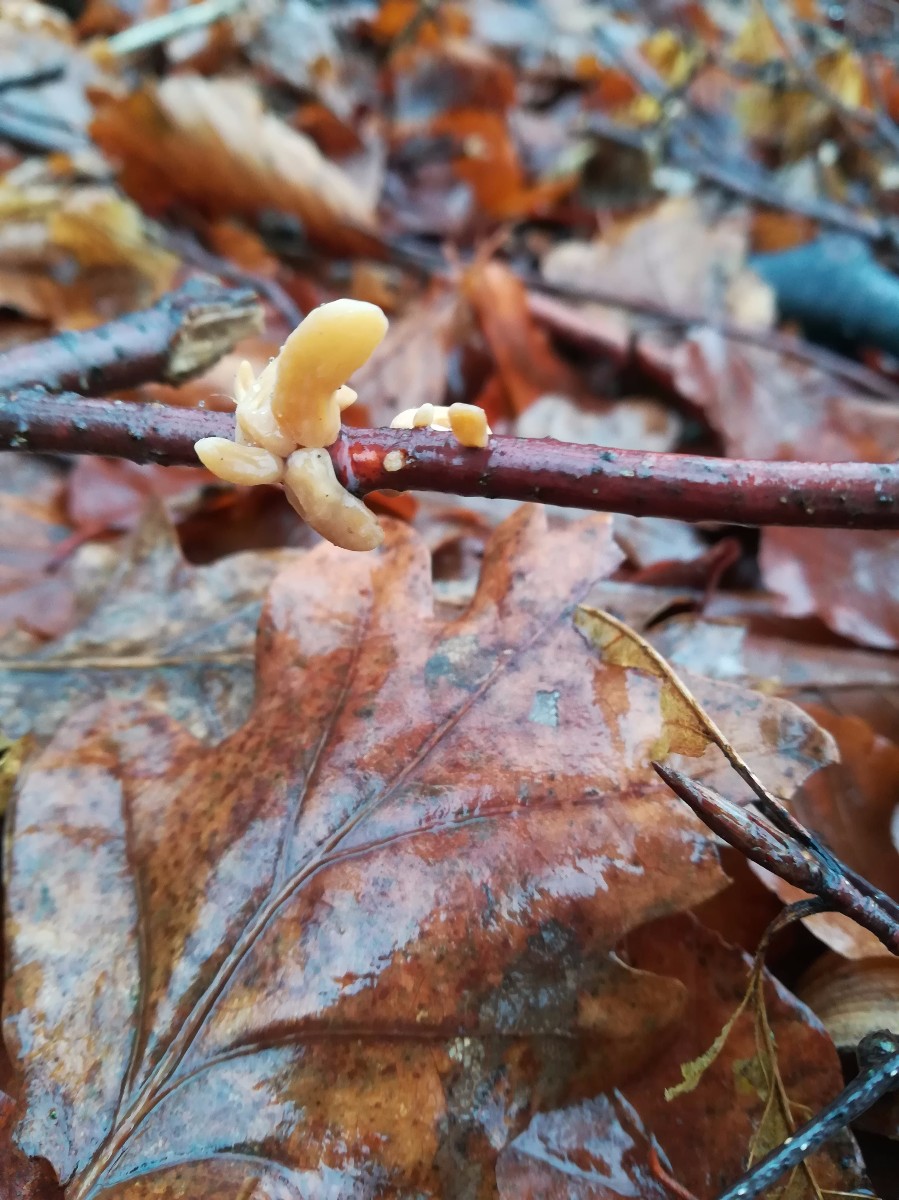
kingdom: Fungi
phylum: Basidiomycota
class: Agaricomycetes
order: Agaricales
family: Typhulaceae
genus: Typhula
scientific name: Typhula contorta
